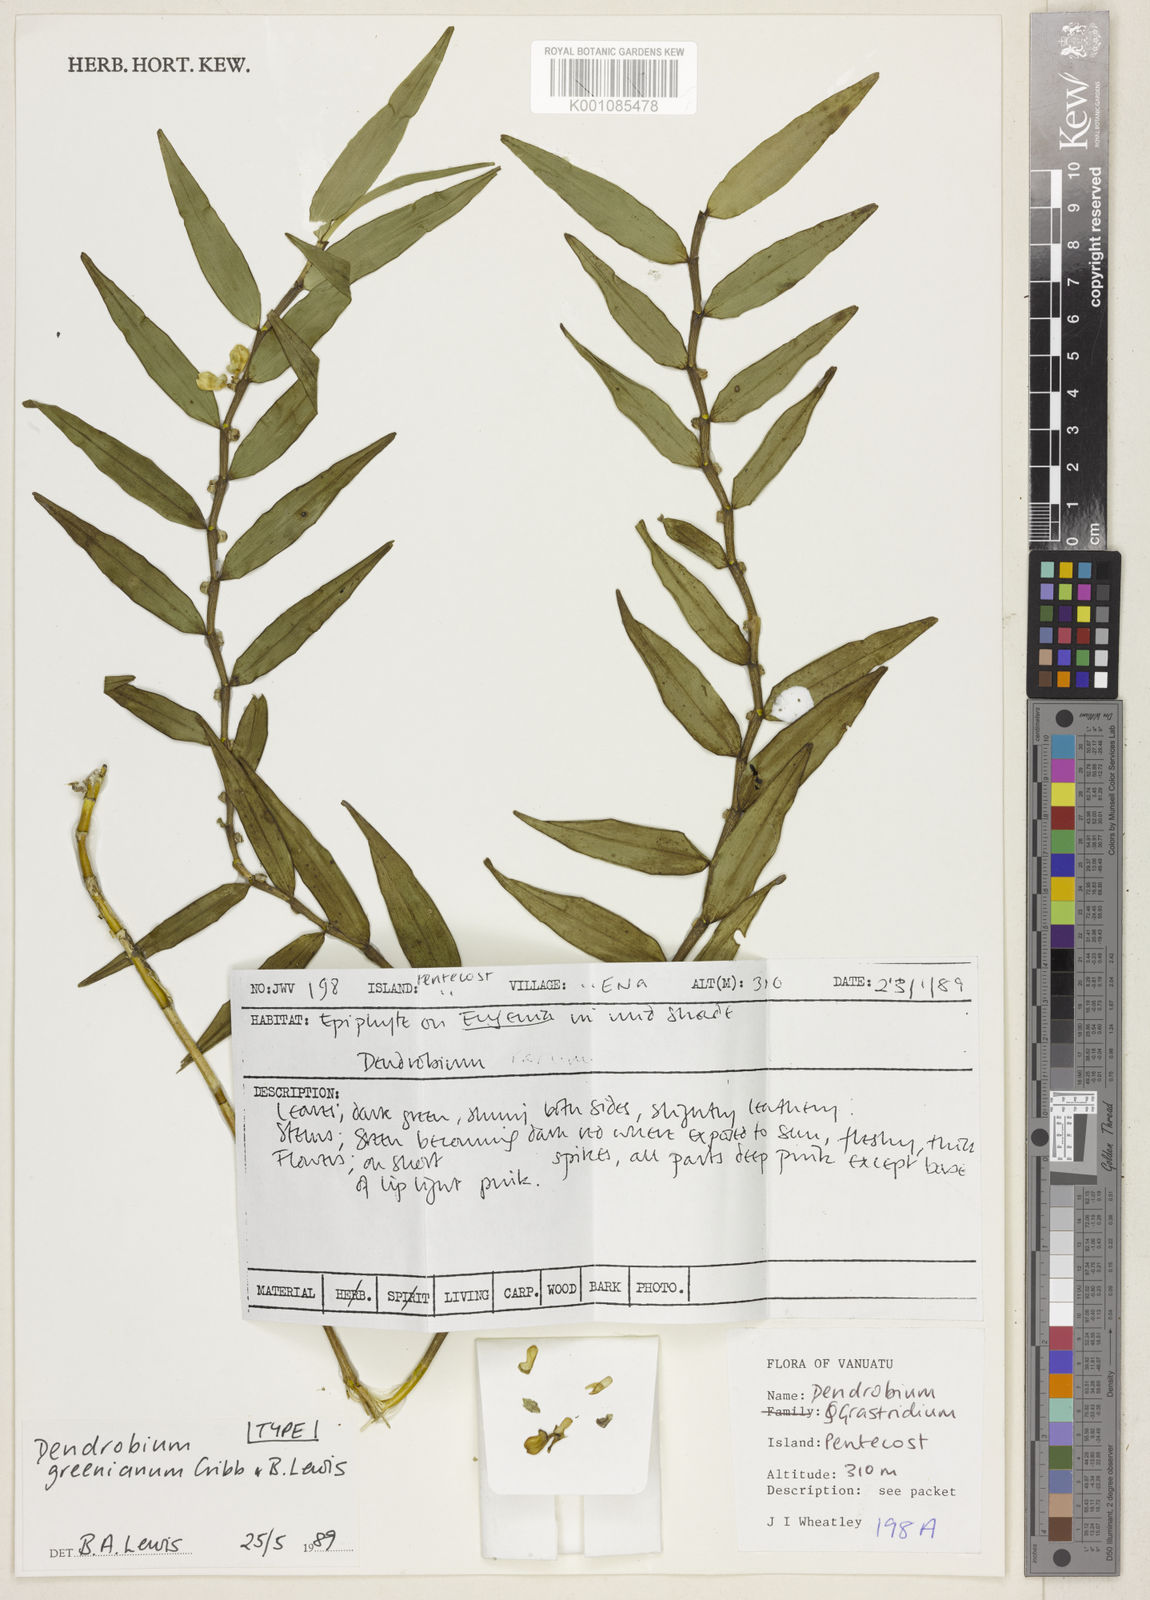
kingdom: Plantae
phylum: Tracheophyta
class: Liliopsida
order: Asparagales
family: Orchidaceae
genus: Dendrobium
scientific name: Dendrobium dactylodes
